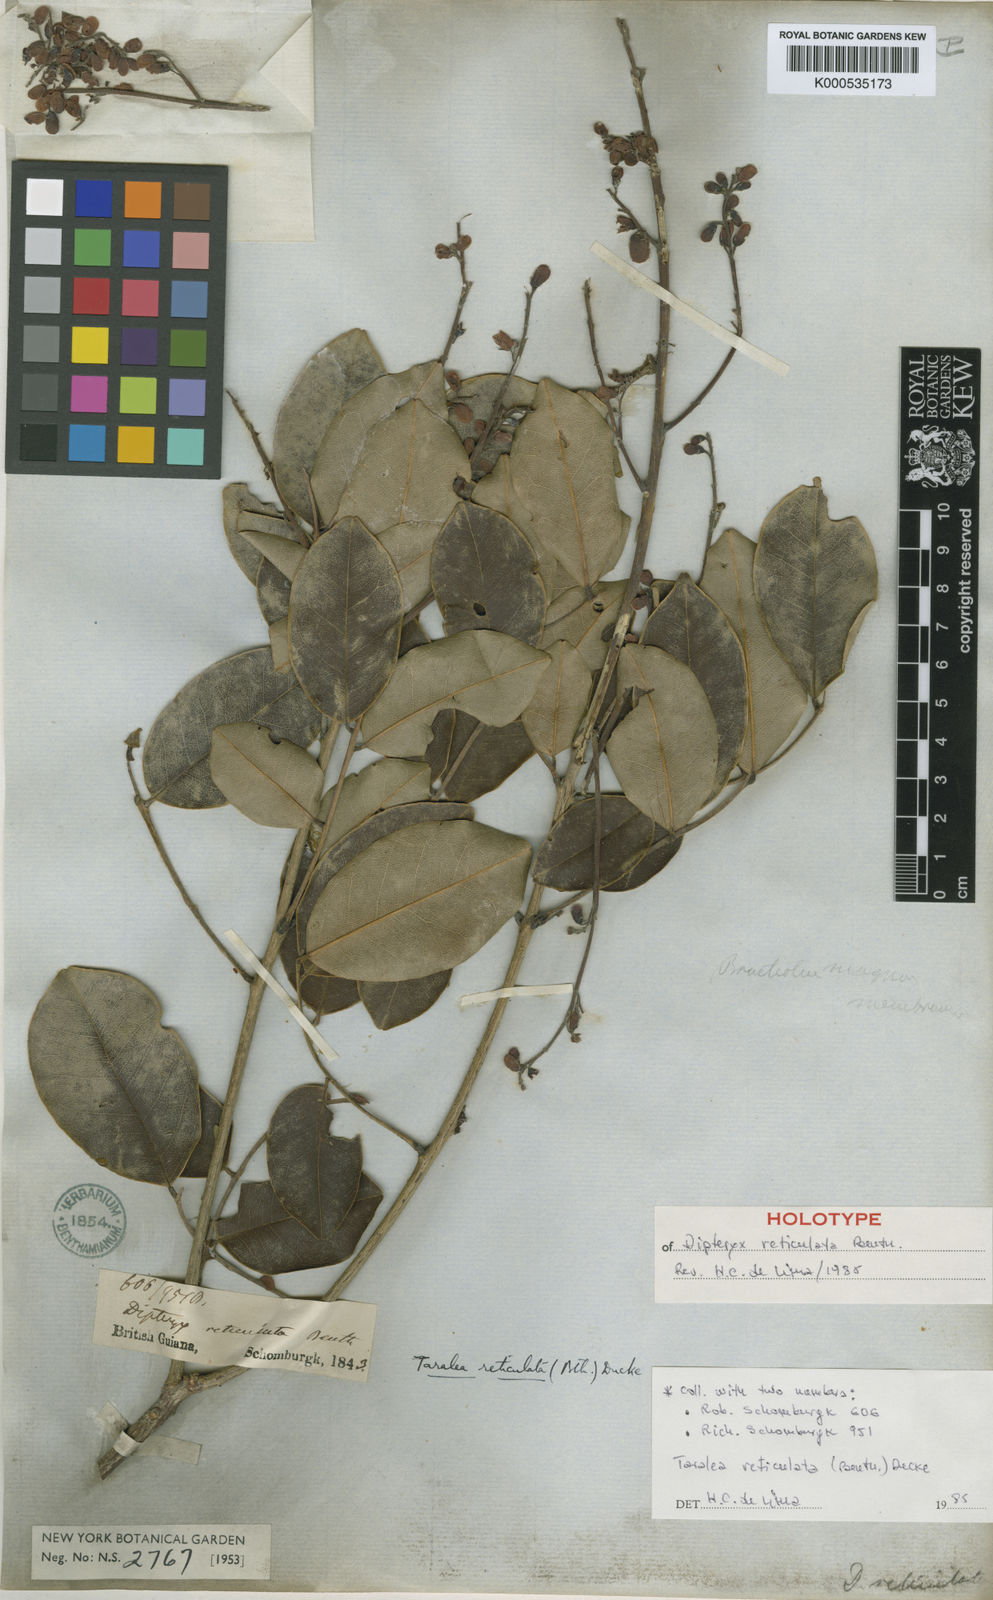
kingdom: Plantae
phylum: Tracheophyta
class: Magnoliopsida
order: Fabales
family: Fabaceae
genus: Taralea
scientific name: Taralea reticulata
